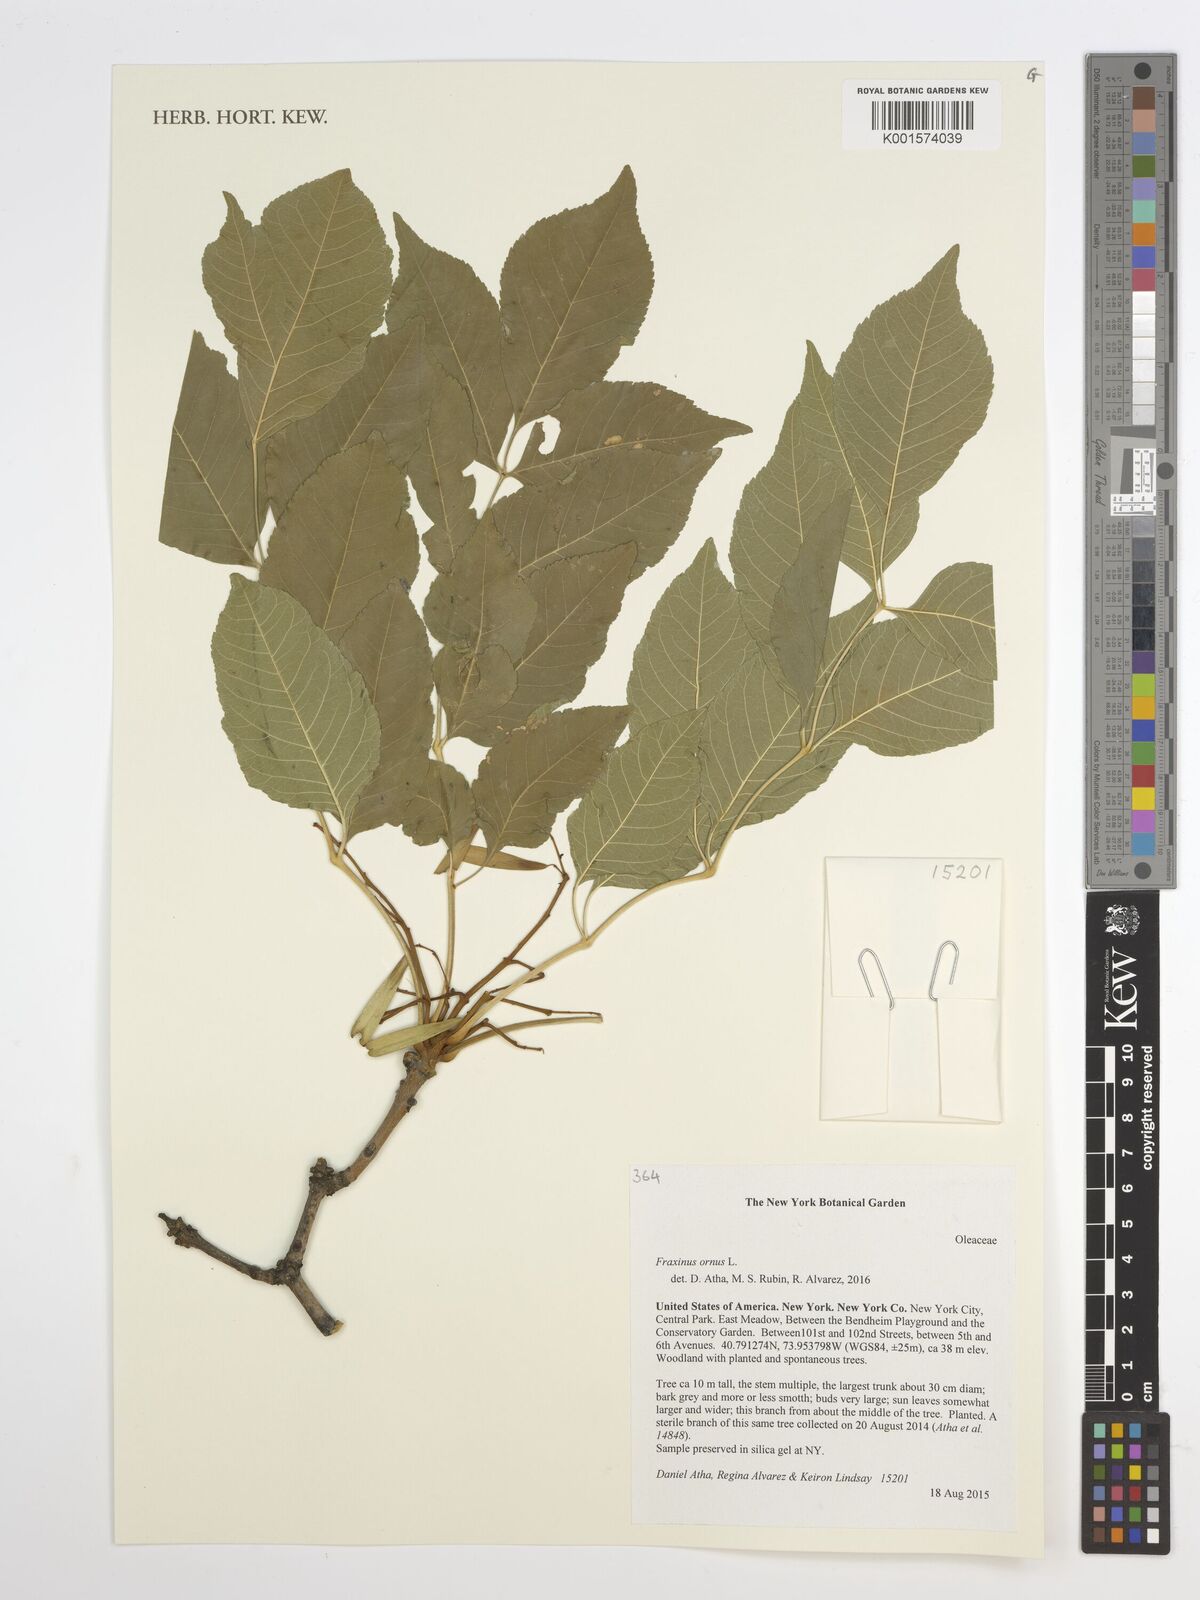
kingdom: Plantae
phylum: Tracheophyta
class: Magnoliopsida
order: Lamiales
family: Oleaceae
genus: Fraxinus
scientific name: Fraxinus ornus
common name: Manna ash
